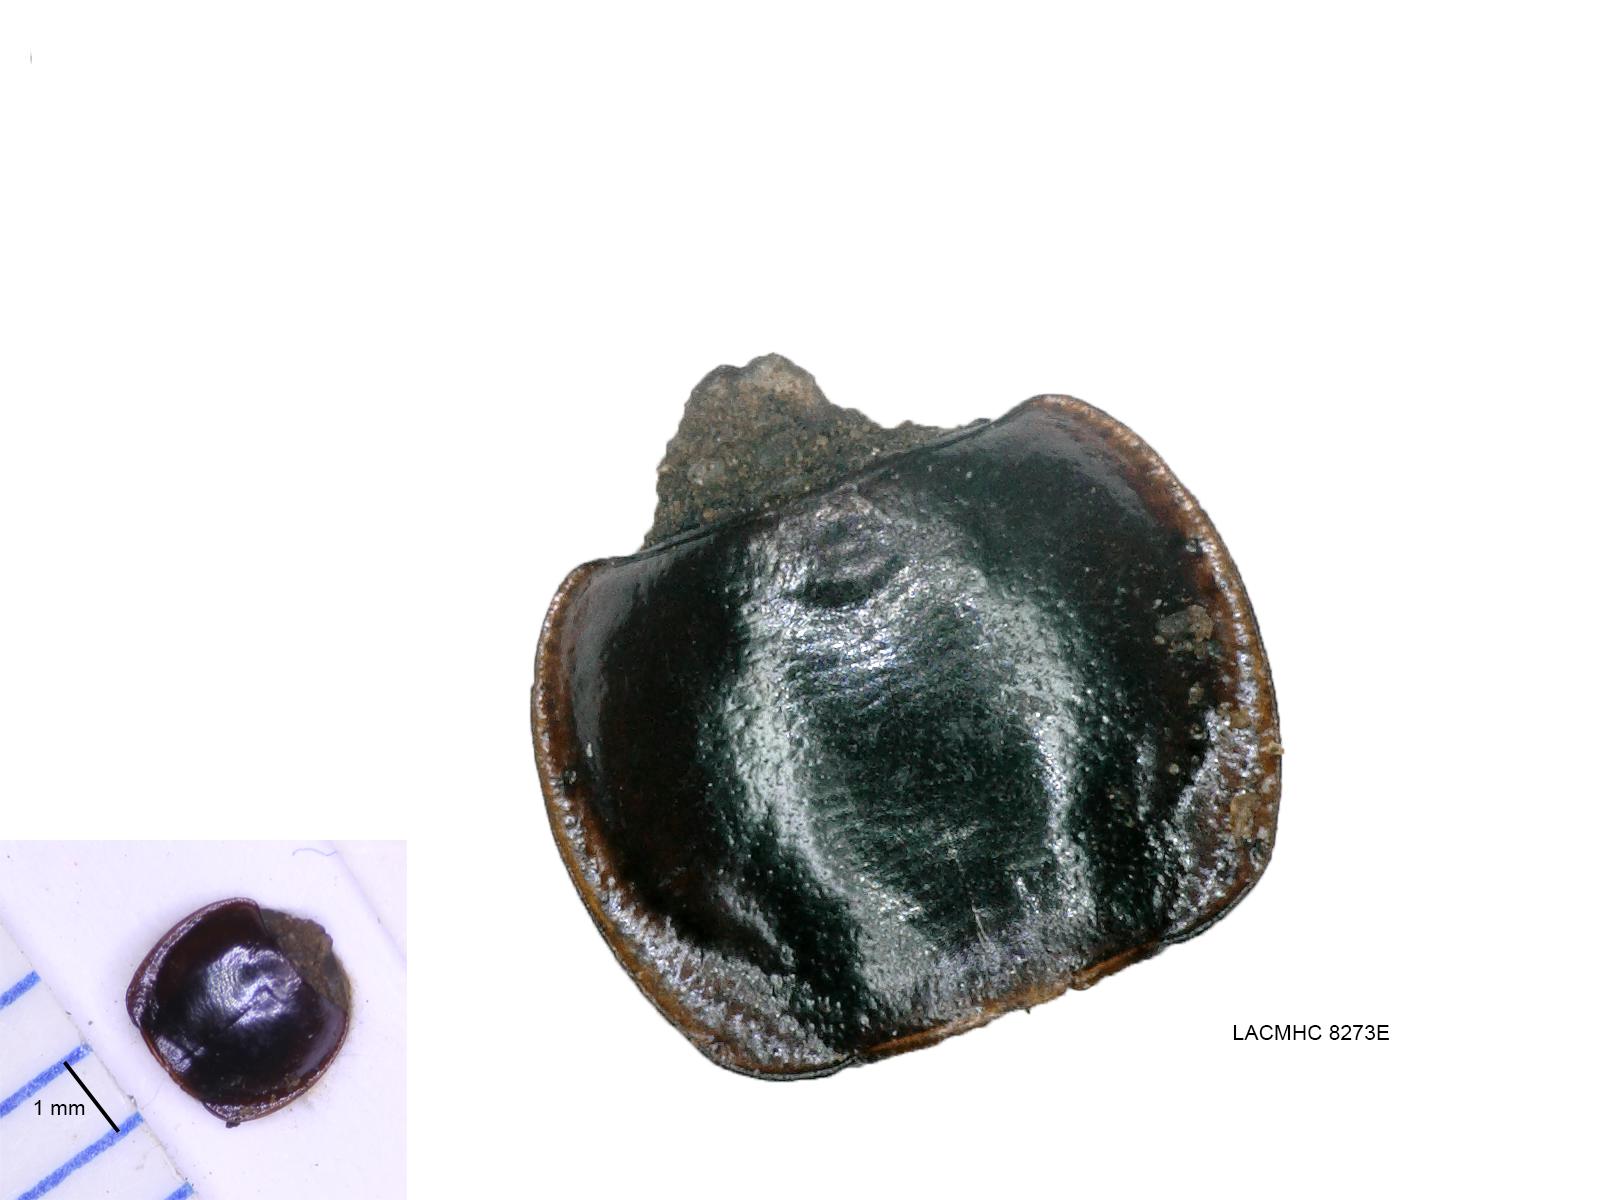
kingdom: Animalia
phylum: Arthropoda
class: Insecta
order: Coleoptera
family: Carabidae
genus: Tanystoma
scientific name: Tanystoma maculicolle
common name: Tule beetle
